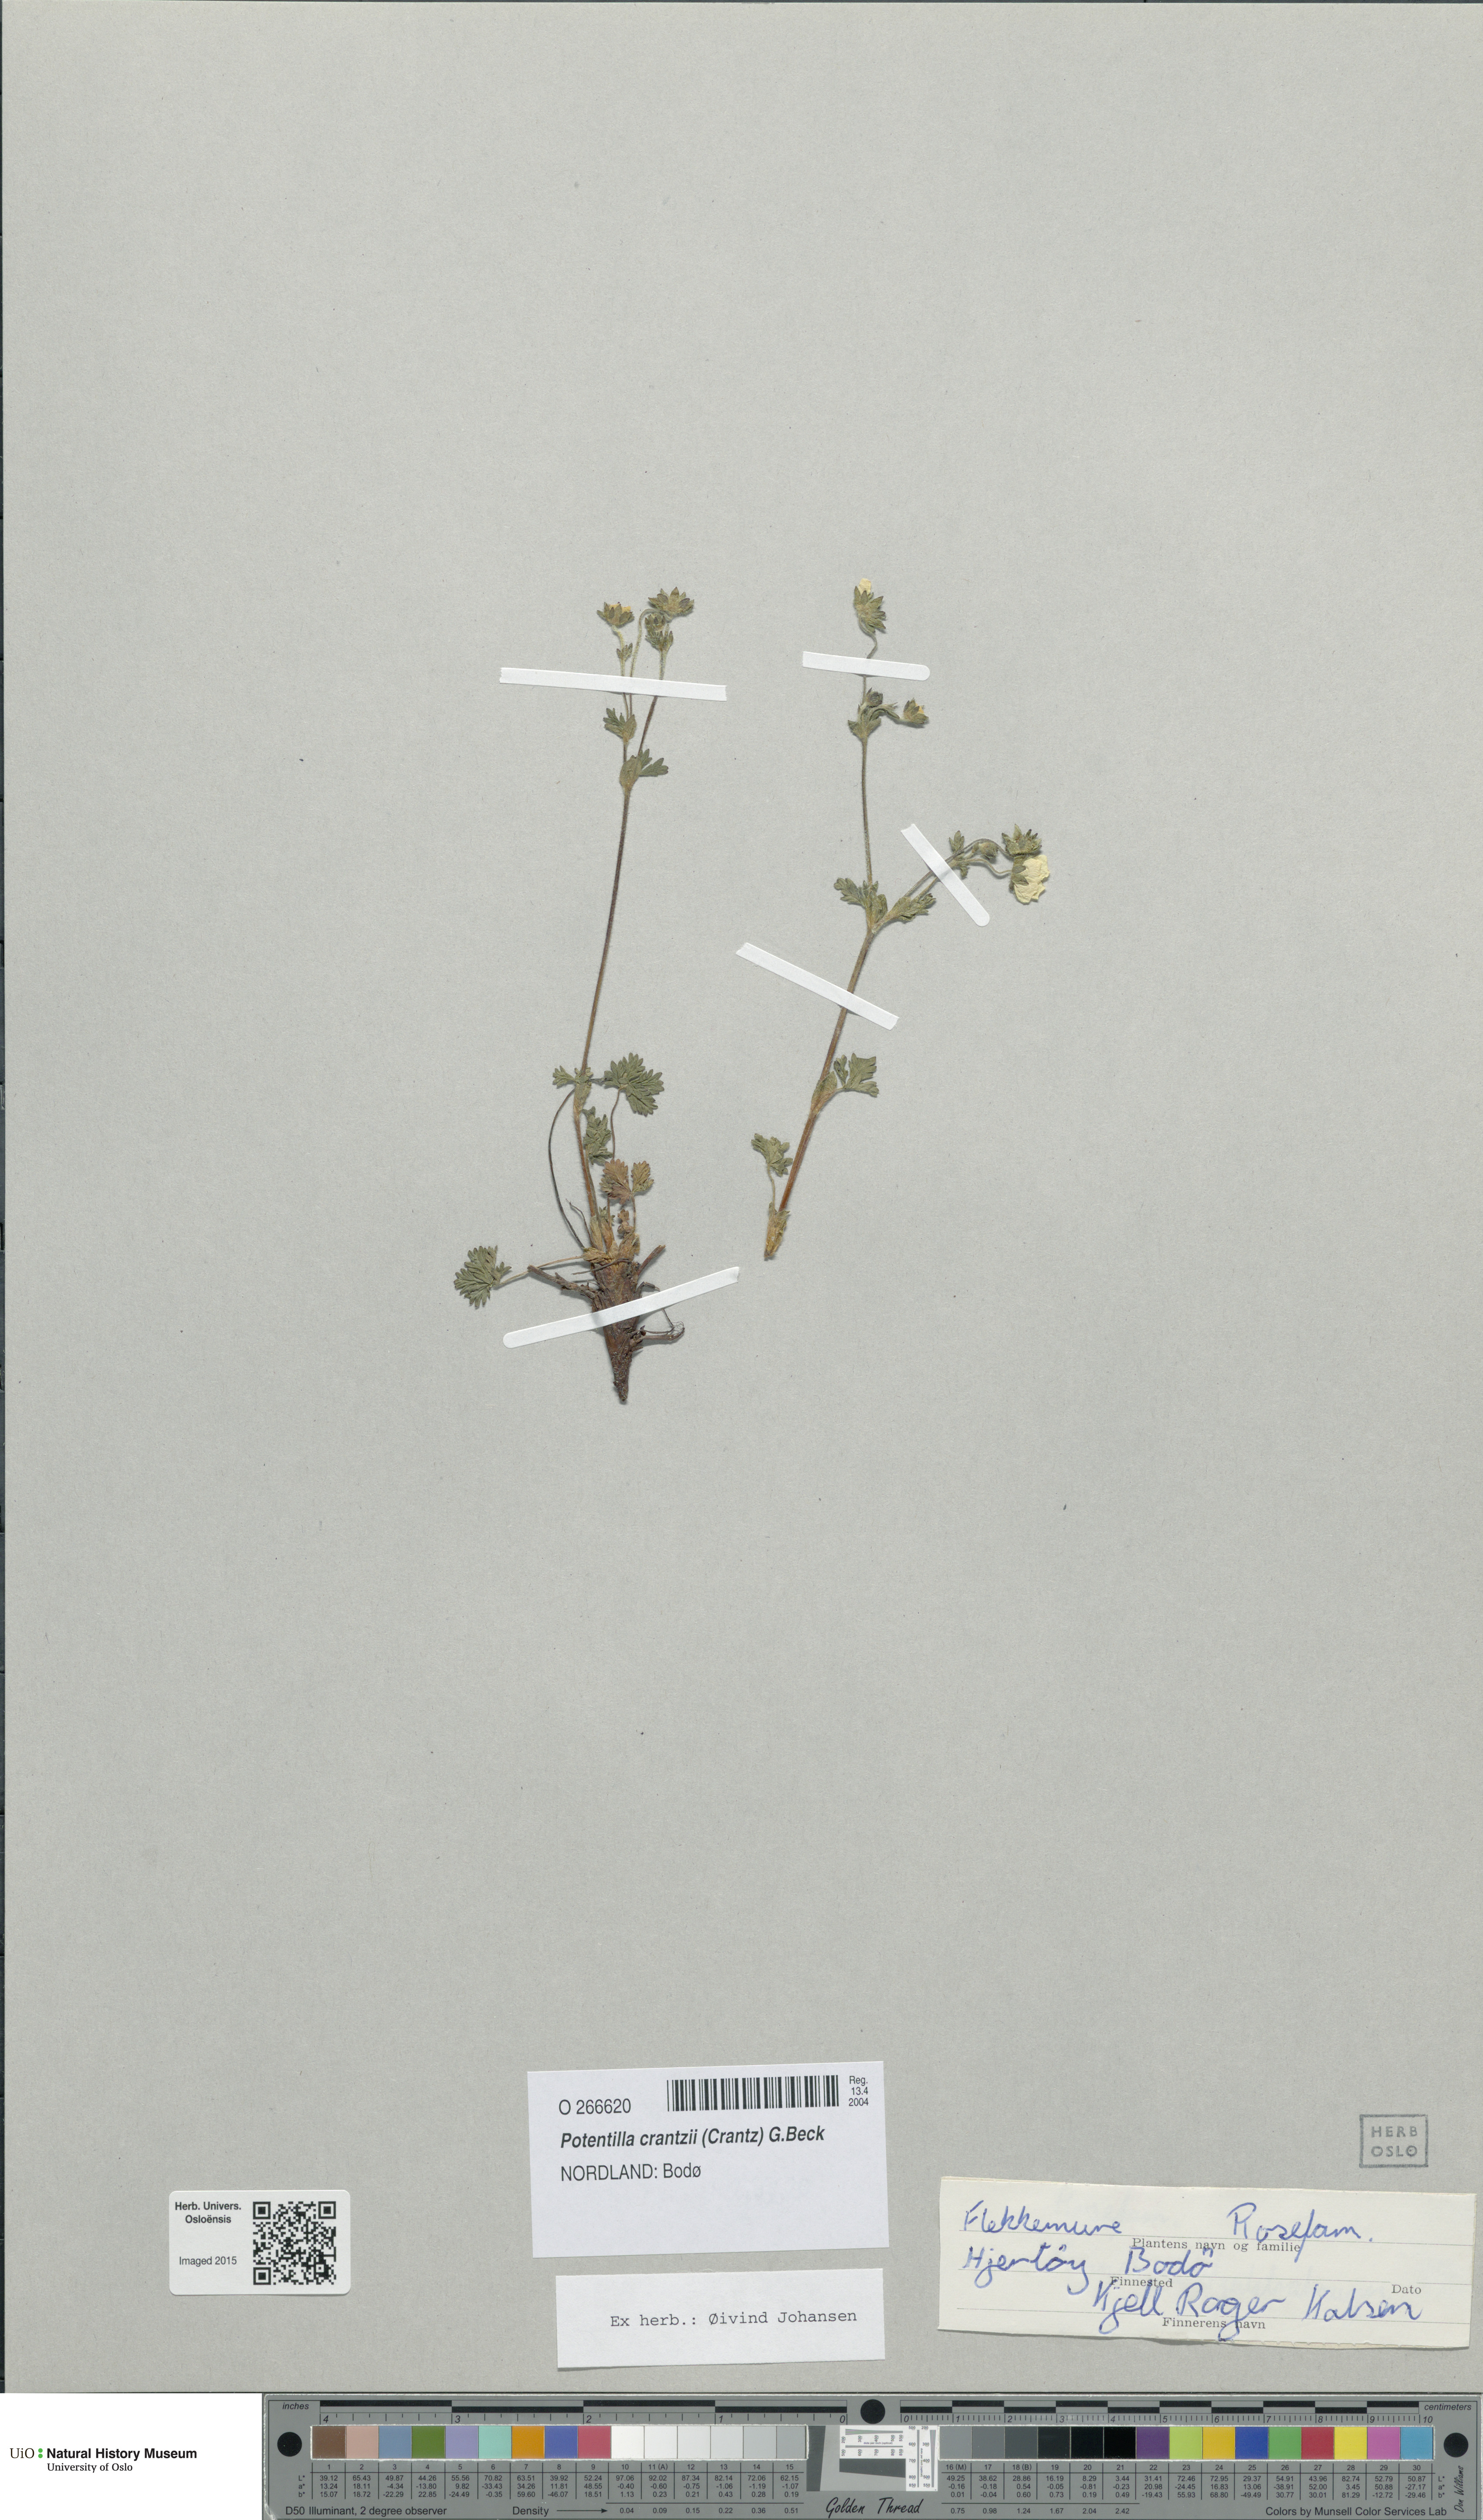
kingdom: Plantae
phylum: Tracheophyta
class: Magnoliopsida
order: Rosales
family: Rosaceae
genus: Potentilla
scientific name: Potentilla crantzii
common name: Alpine cinquefoil
